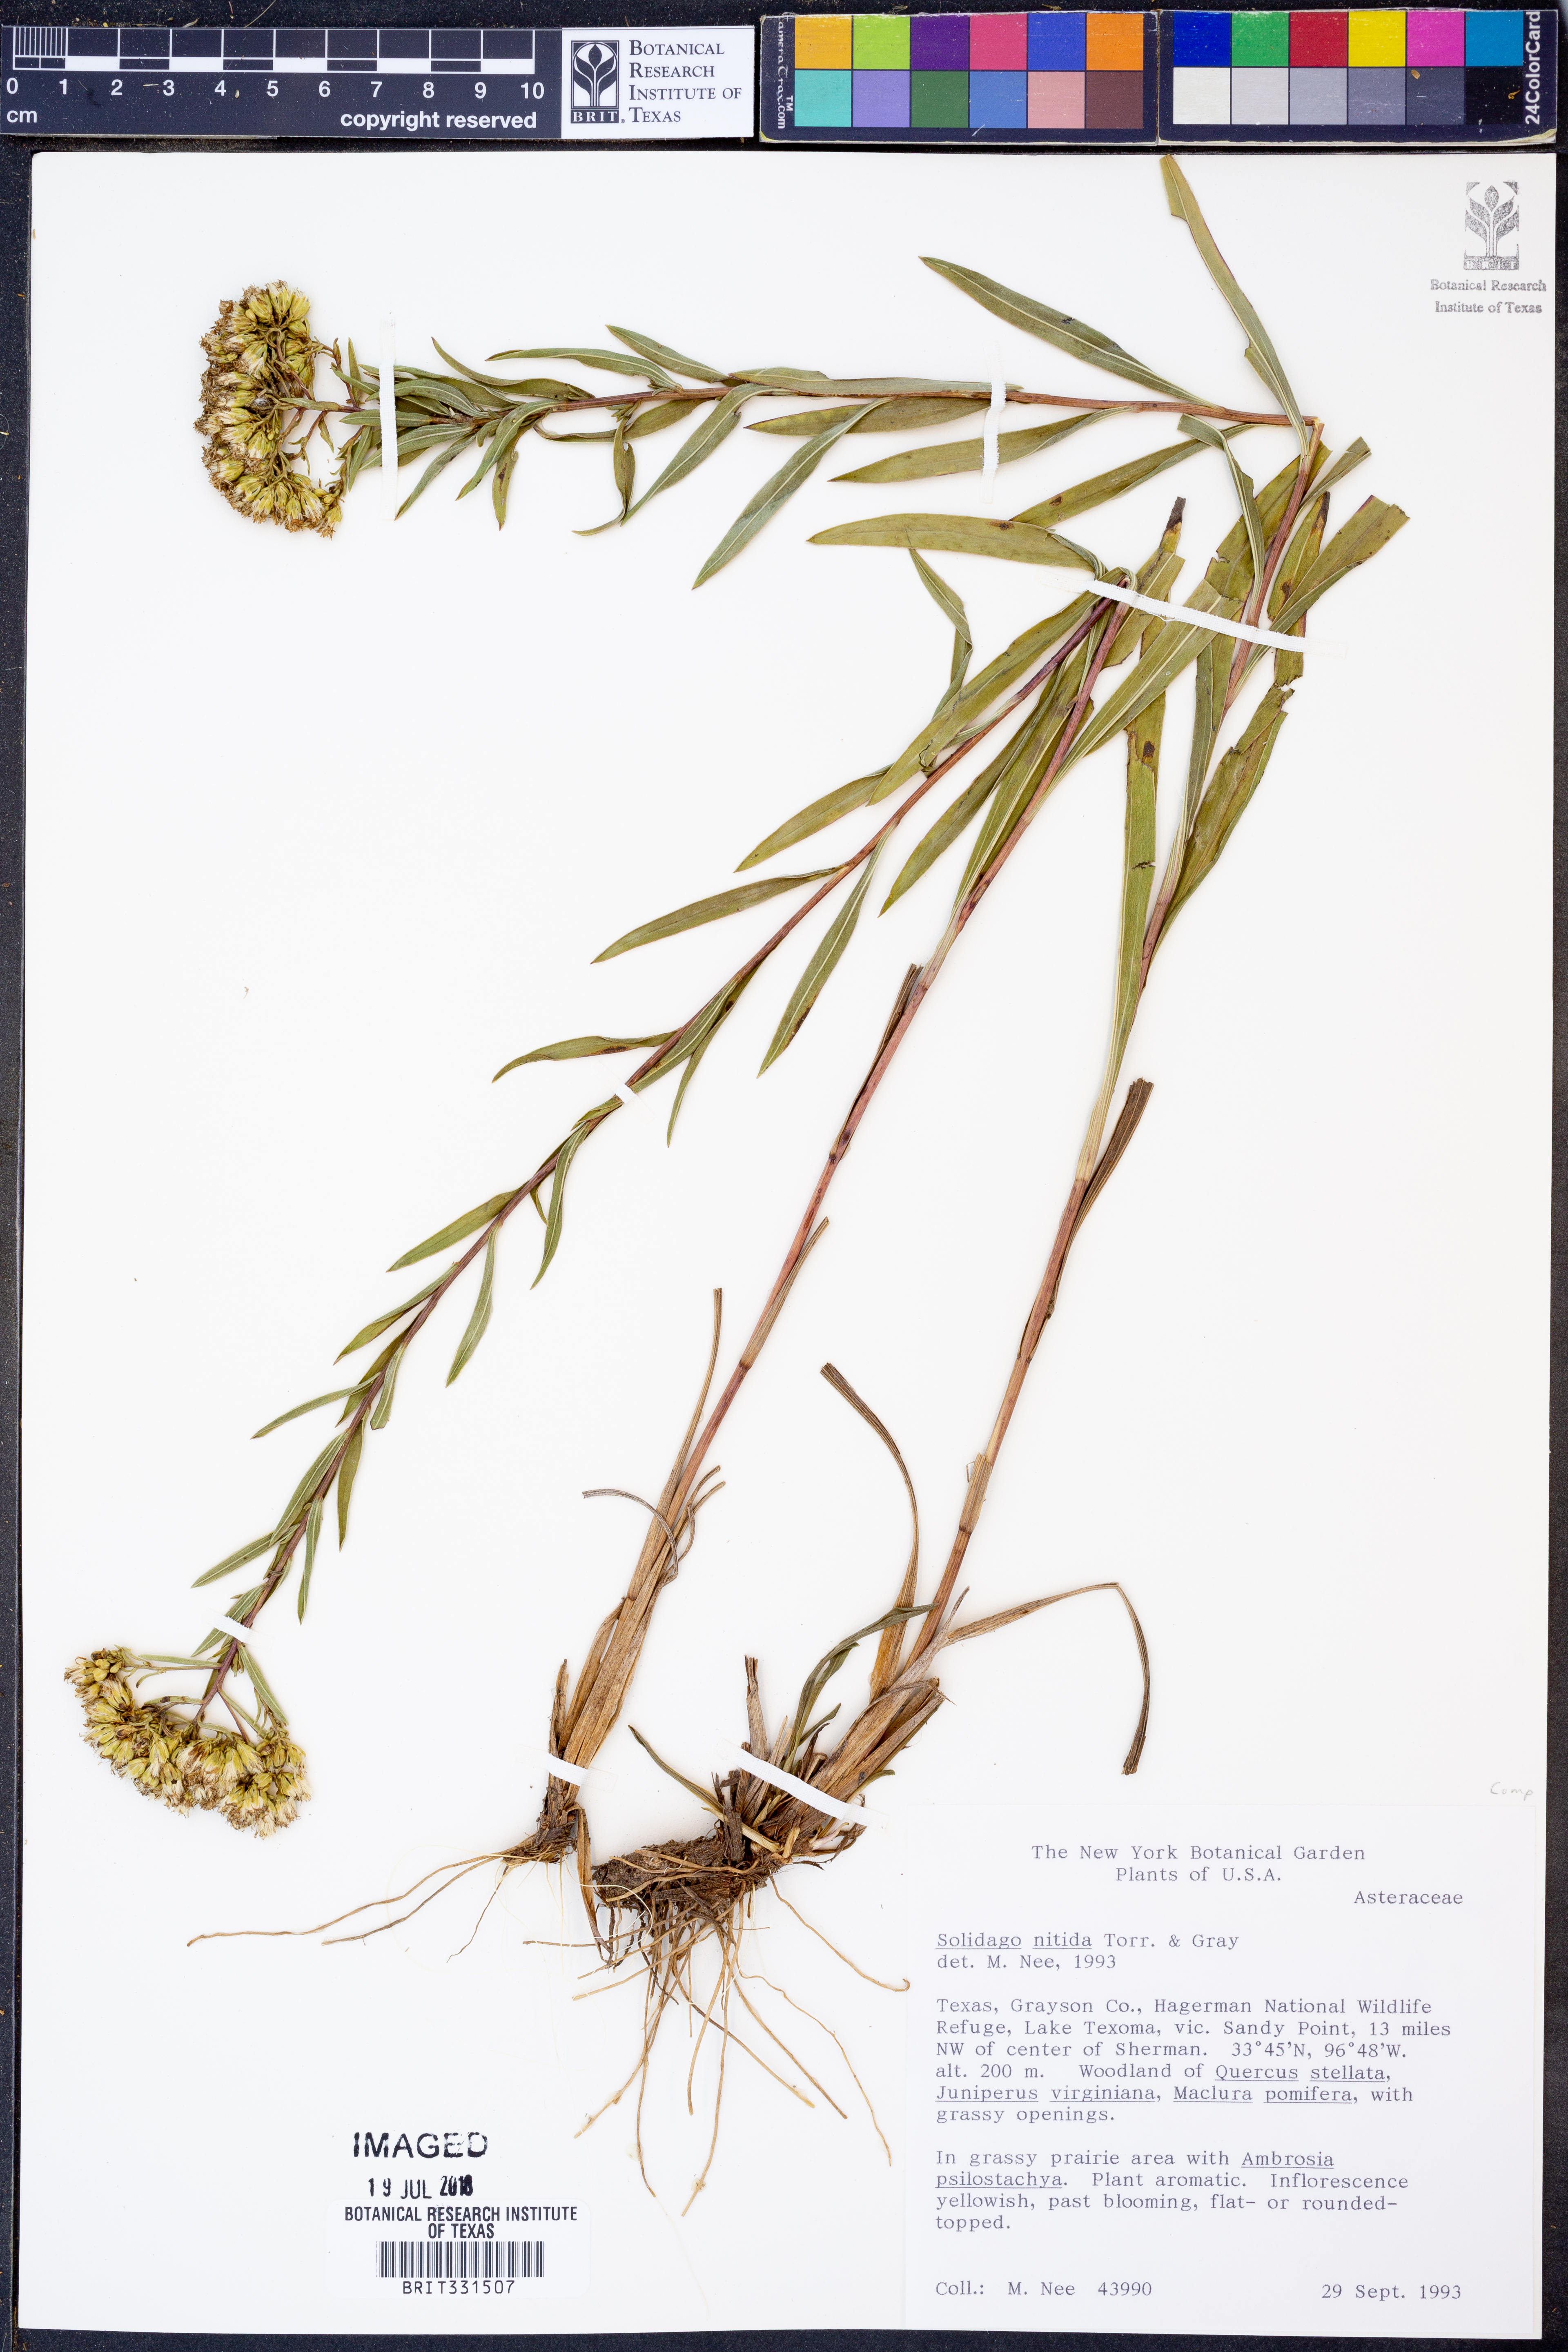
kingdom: Plantae
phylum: Tracheophyta
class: Magnoliopsida
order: Asterales
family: Asteraceae
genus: Solidago
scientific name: Solidago nitida
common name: Shiny goldenrod
